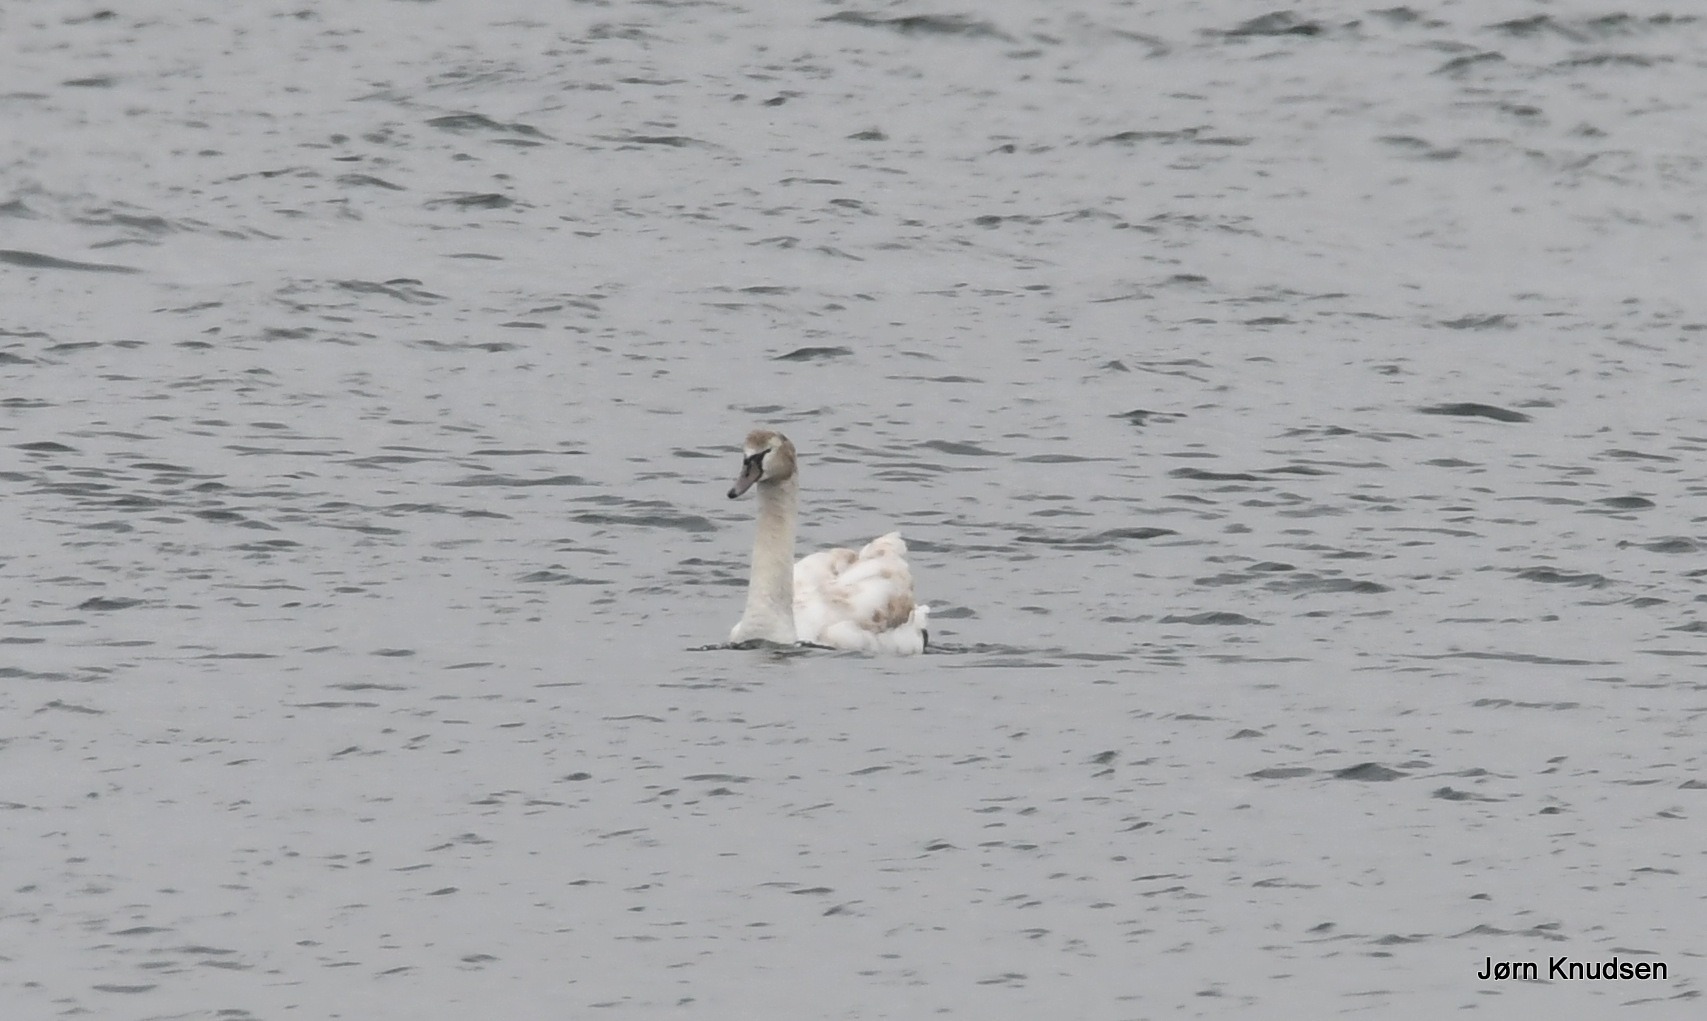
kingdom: Animalia
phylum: Chordata
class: Aves
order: Anseriformes
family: Anatidae
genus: Cygnus
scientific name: Cygnus olor
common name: Knopsvane
